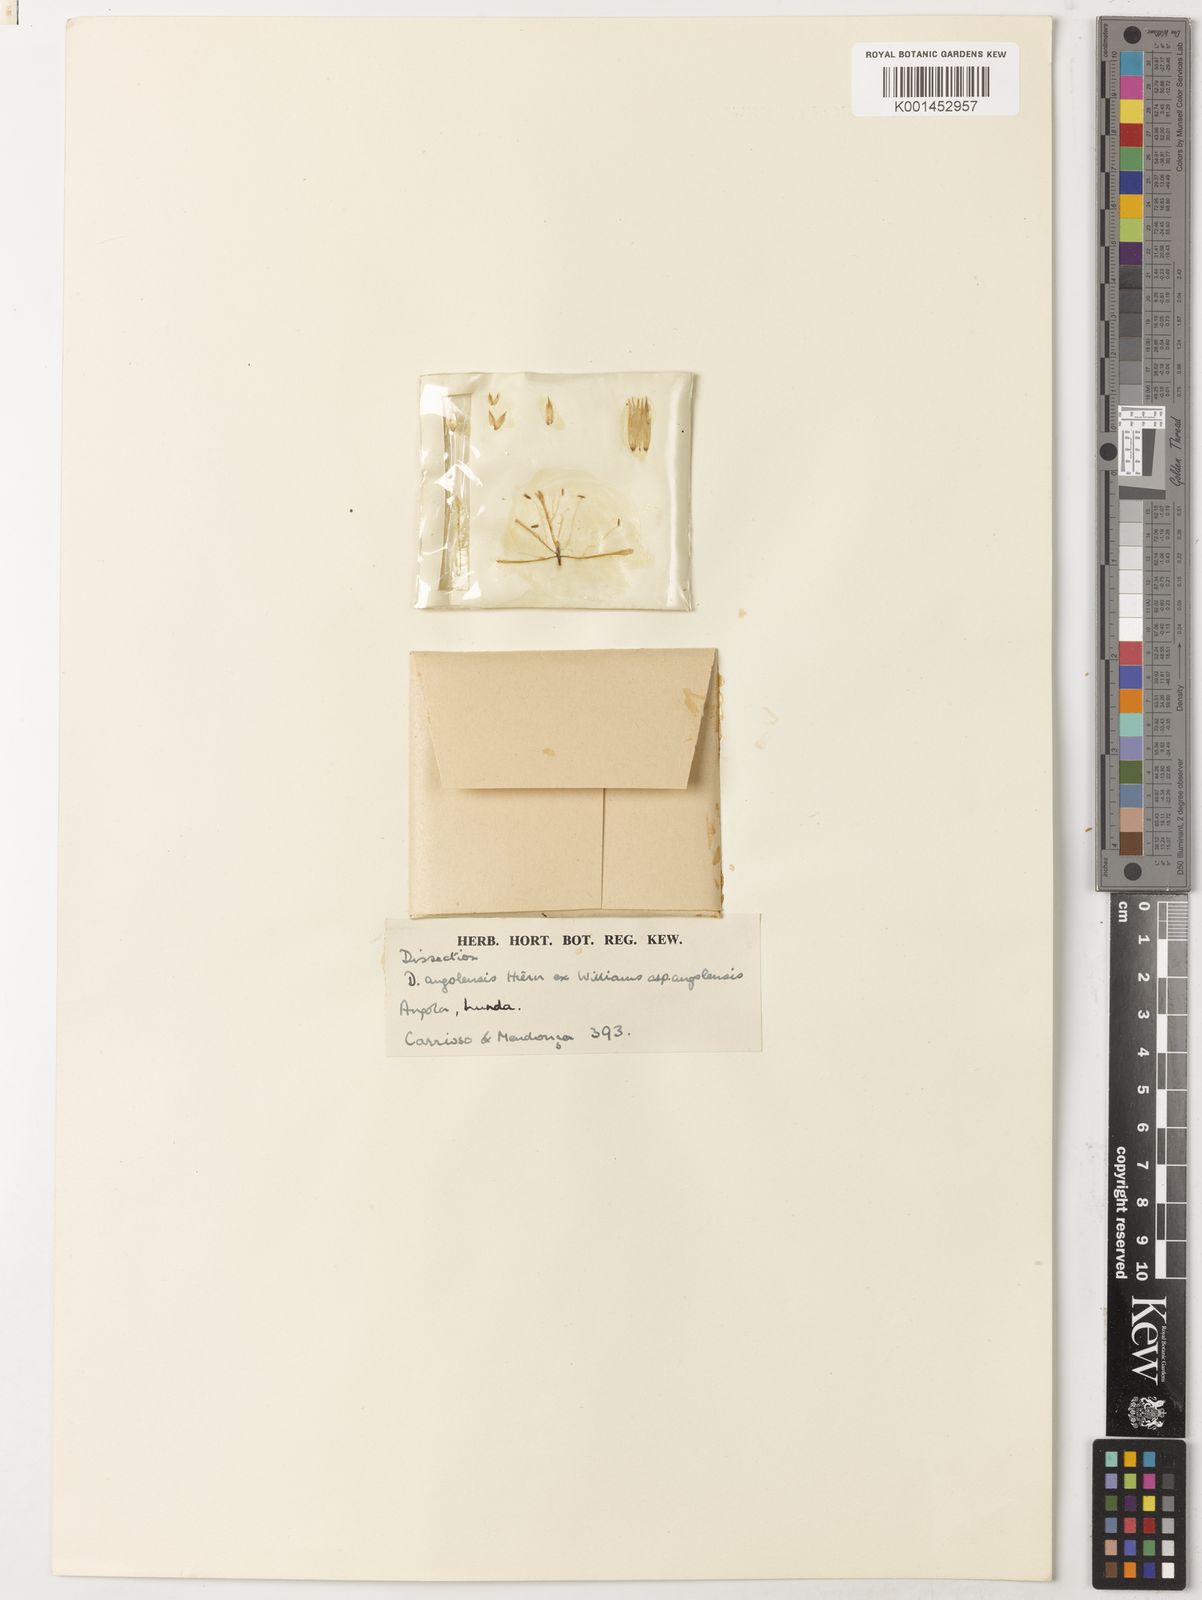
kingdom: Plantae
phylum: Tracheophyta
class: Magnoliopsida
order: Caryophyllales
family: Caryophyllaceae
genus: Dianthus
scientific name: Dianthus angolensis
